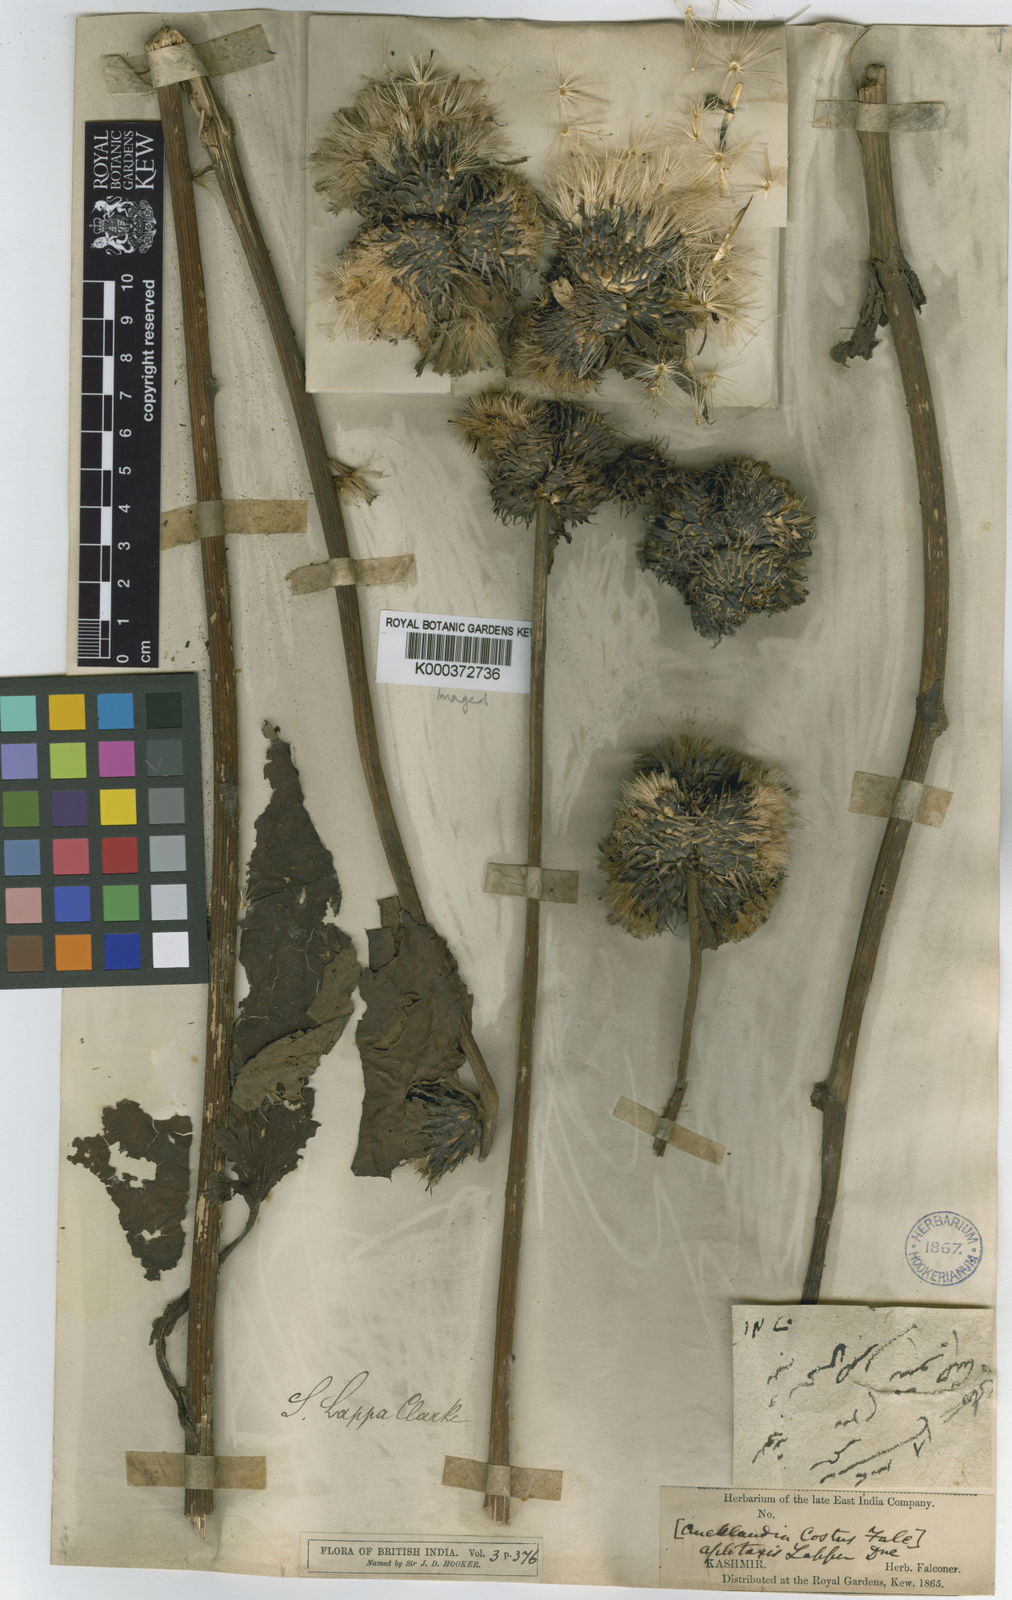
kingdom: Plantae
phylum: Tracheophyta
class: Magnoliopsida
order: Asterales
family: Asteraceae
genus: Dolomiaea
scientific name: Dolomiaea costus
